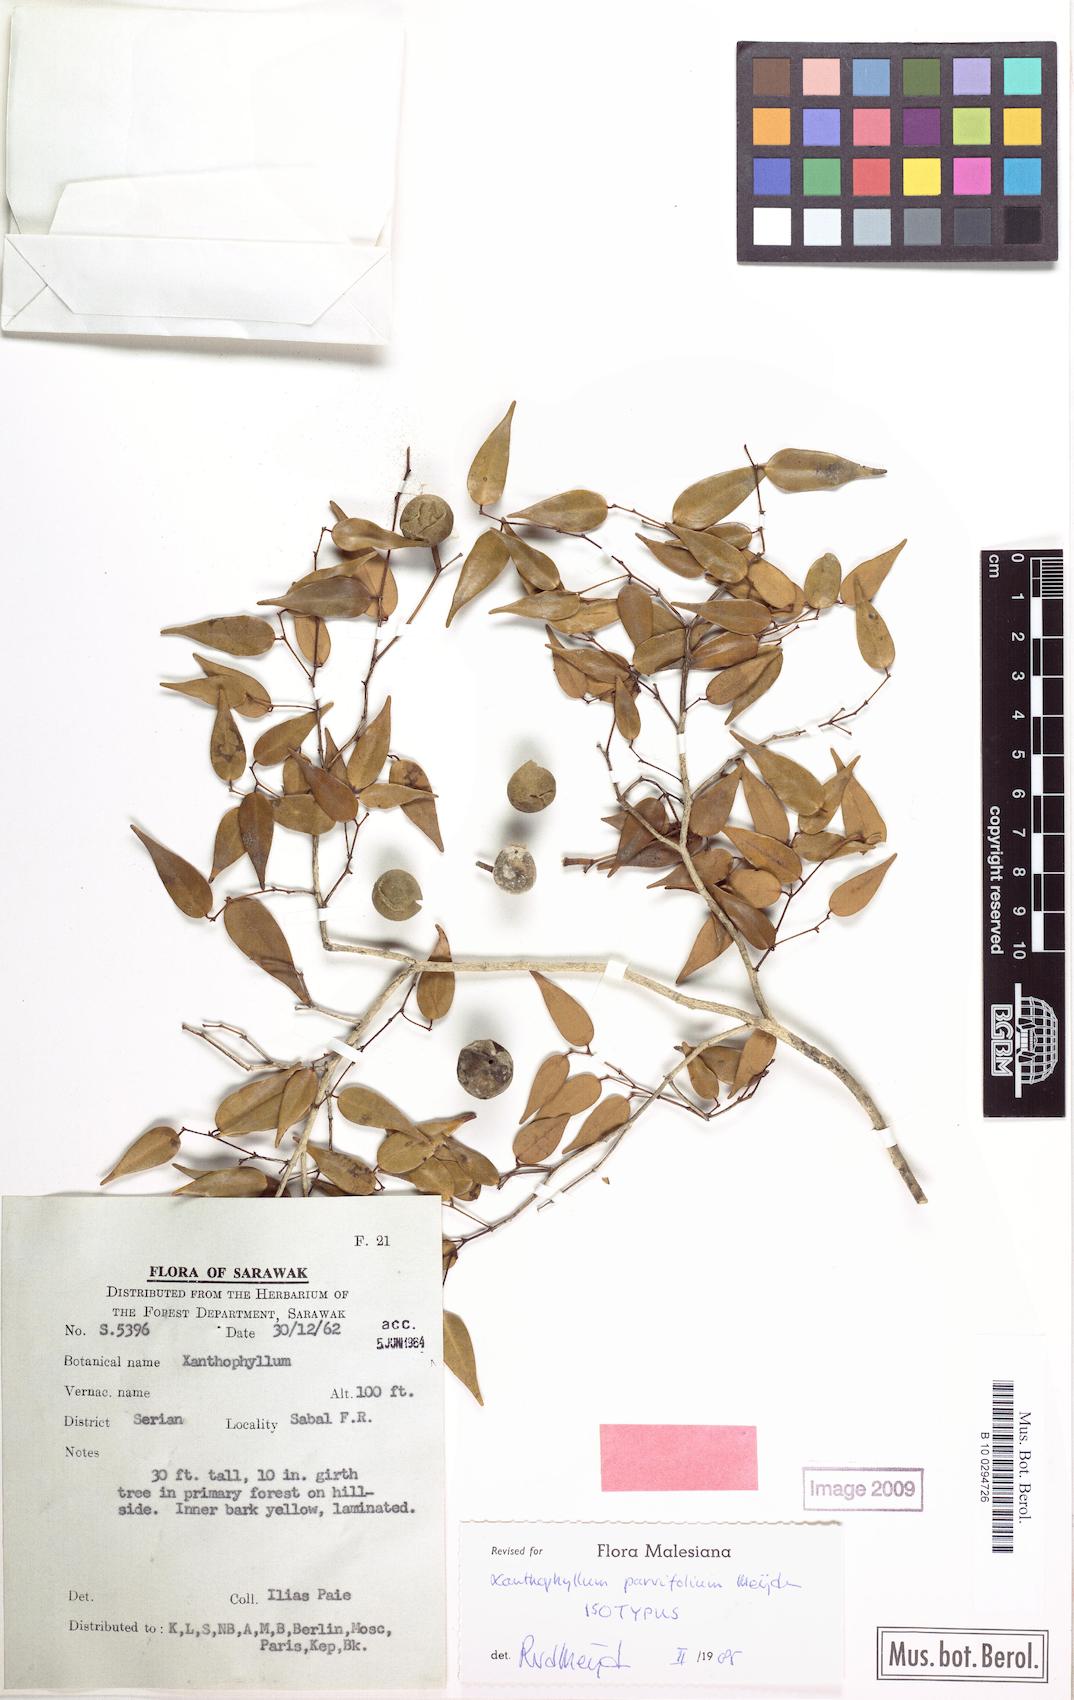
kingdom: Plantae
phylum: Tracheophyta
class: Magnoliopsida
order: Fabales
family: Polygalaceae
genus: Xanthophyllum
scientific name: Xanthophyllum parvifolium
